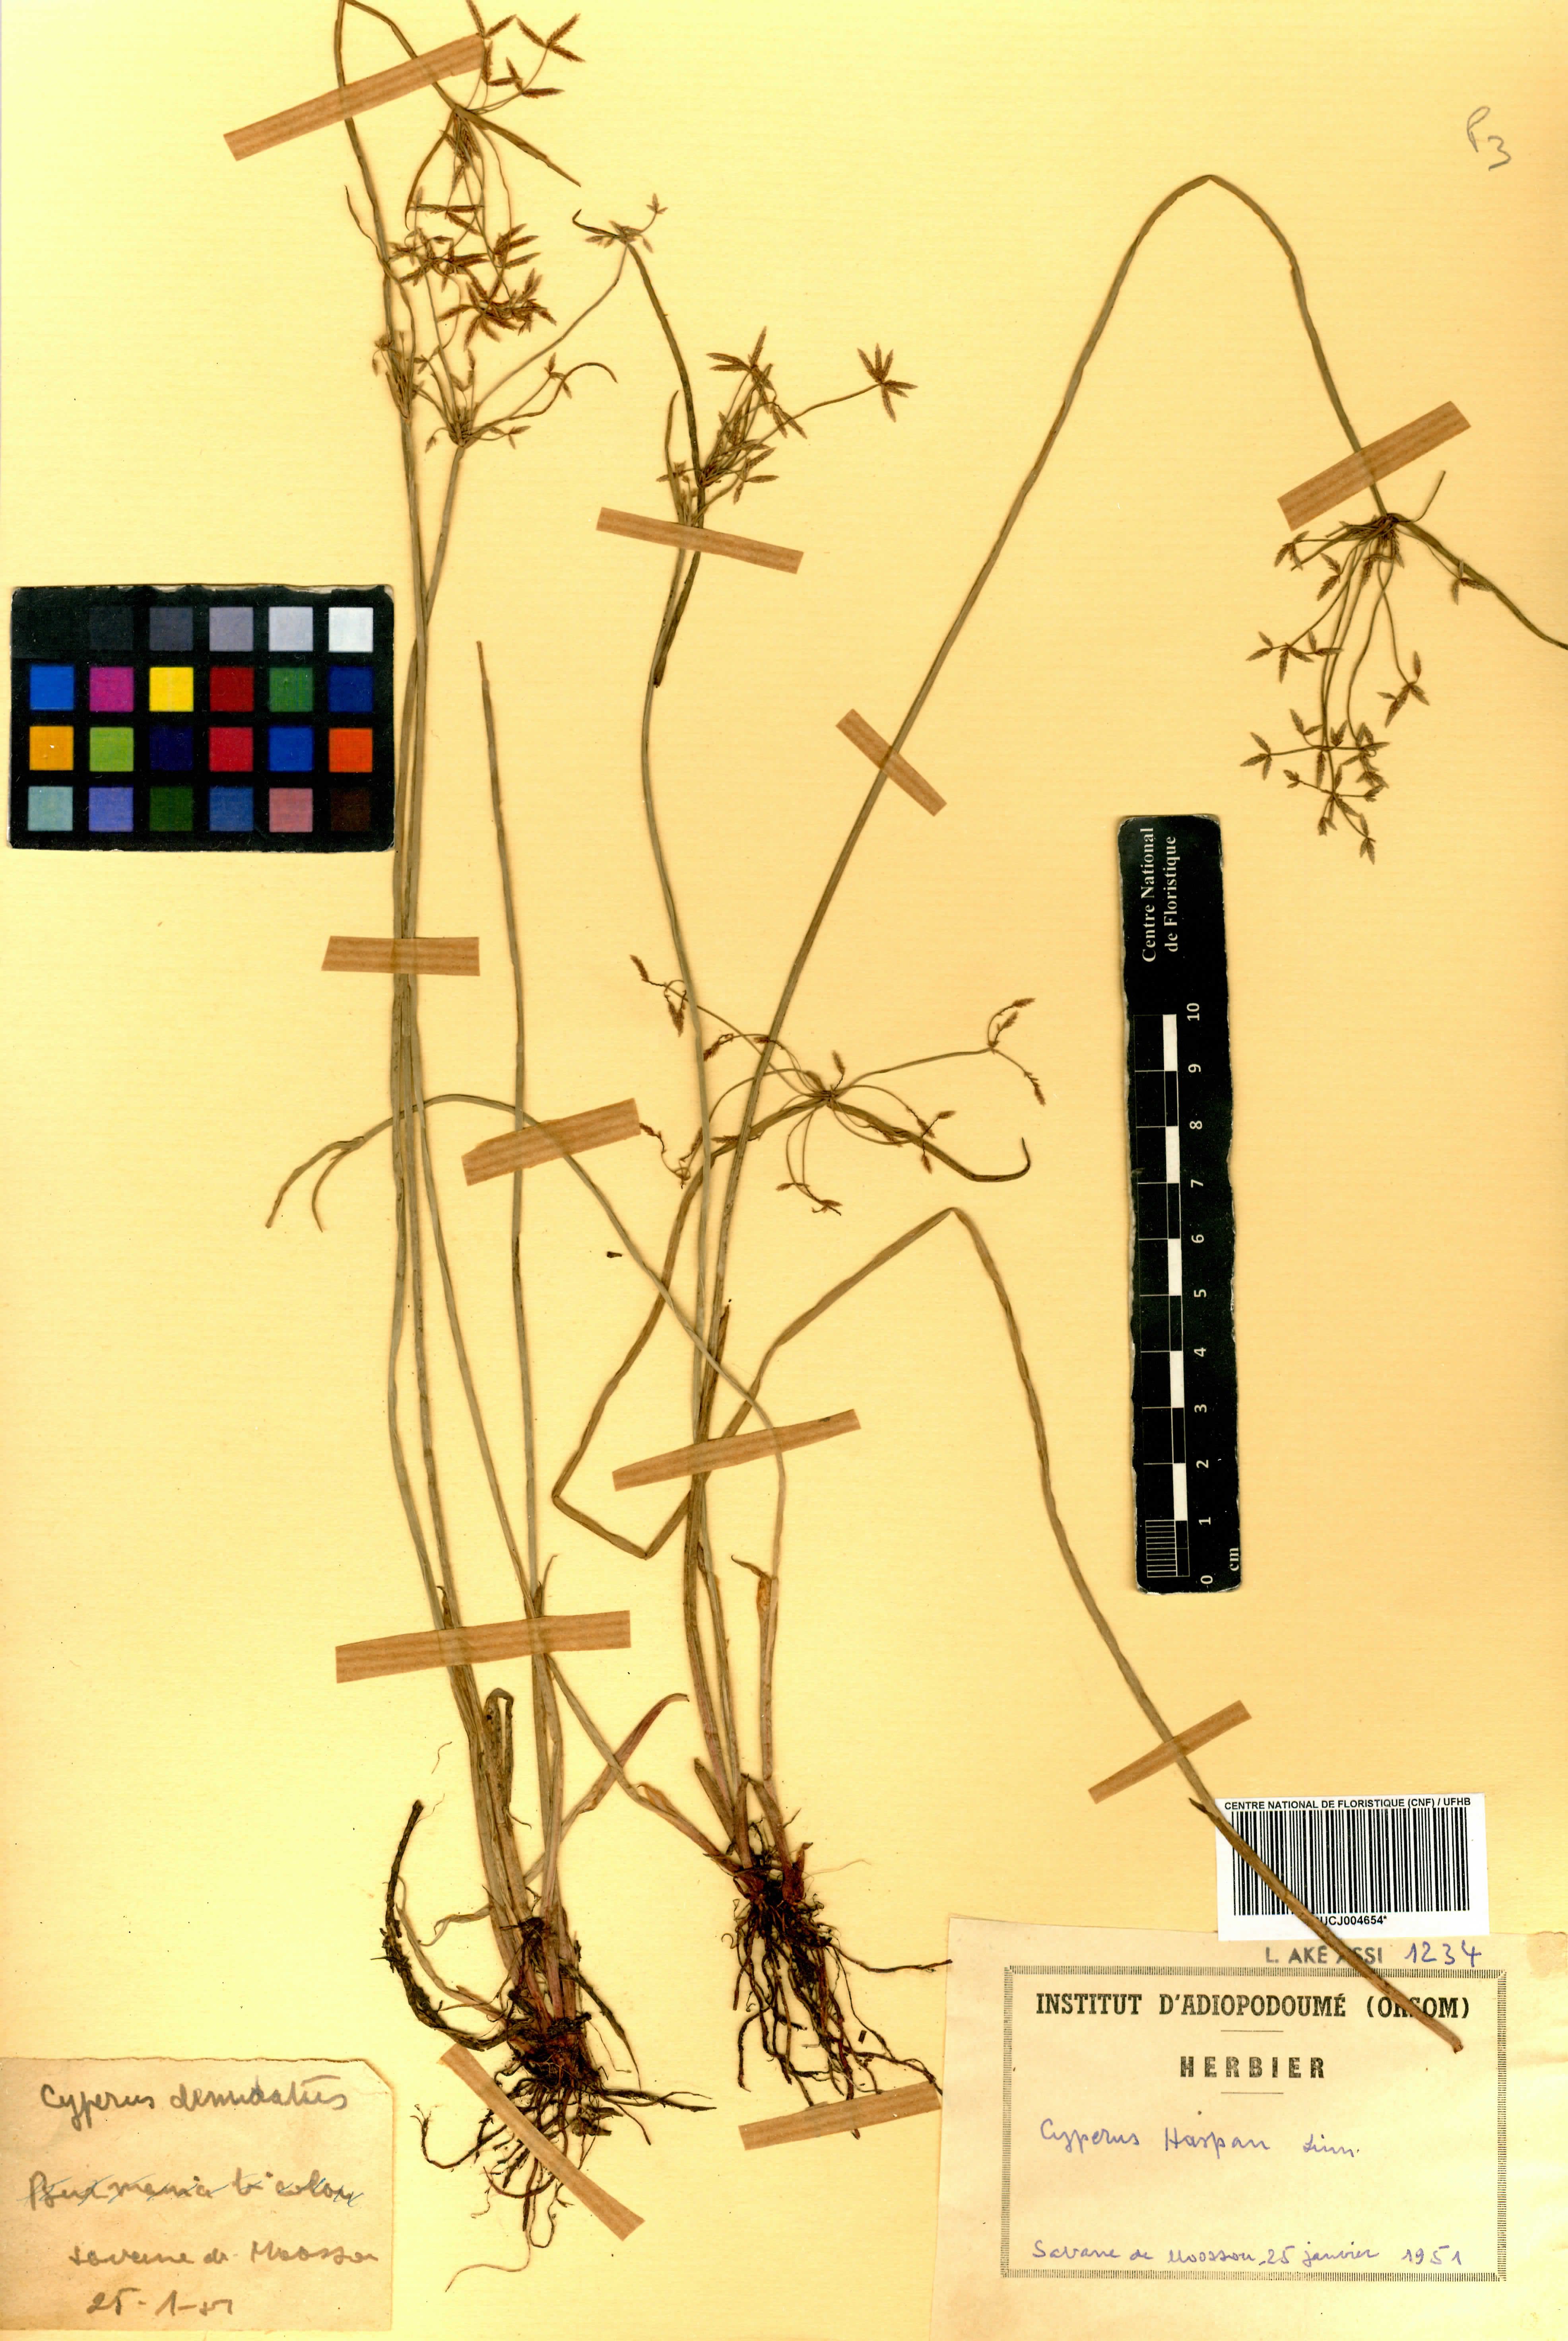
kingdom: Plantae
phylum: Tracheophyta
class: Liliopsida
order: Poales
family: Cyperaceae
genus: Cyperus
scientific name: Cyperus haspan
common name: Haspan flatsedge
